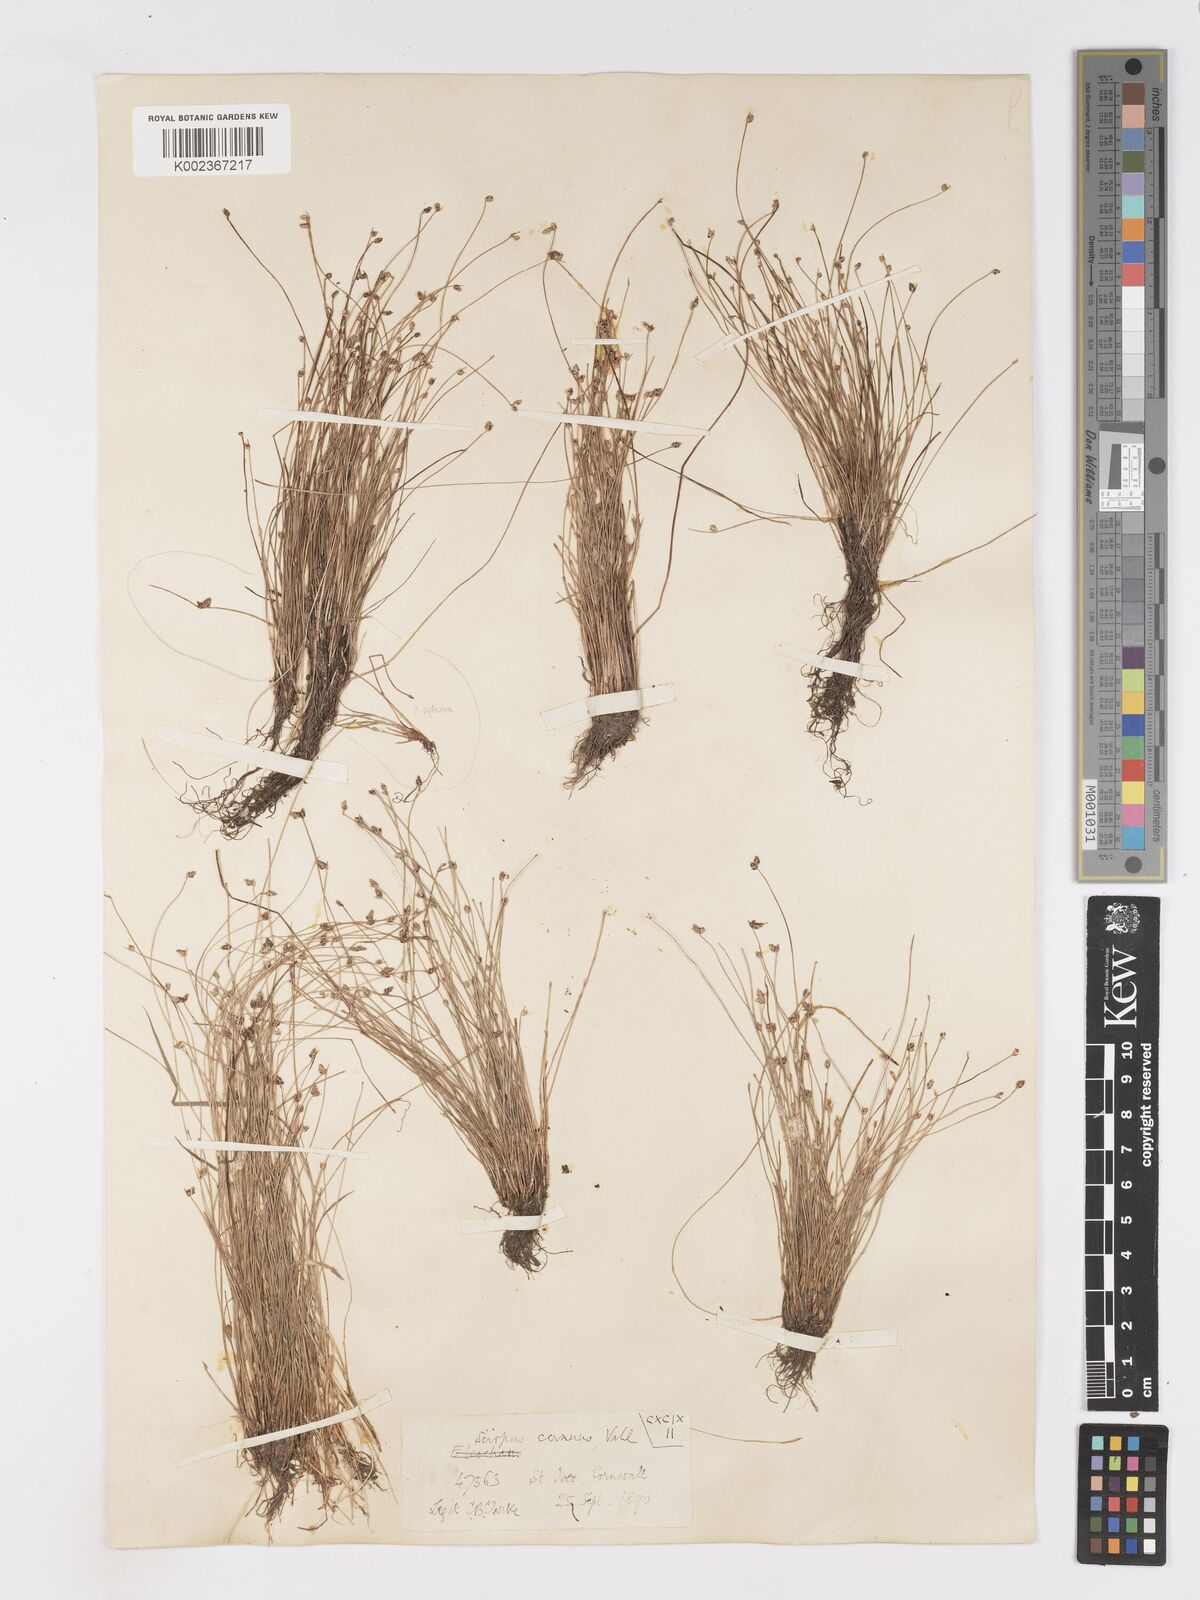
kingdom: Plantae
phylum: Tracheophyta
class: Liliopsida
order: Poales
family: Cyperaceae
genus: Isolepis
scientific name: Isolepis cernua
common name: Slender club-rush
